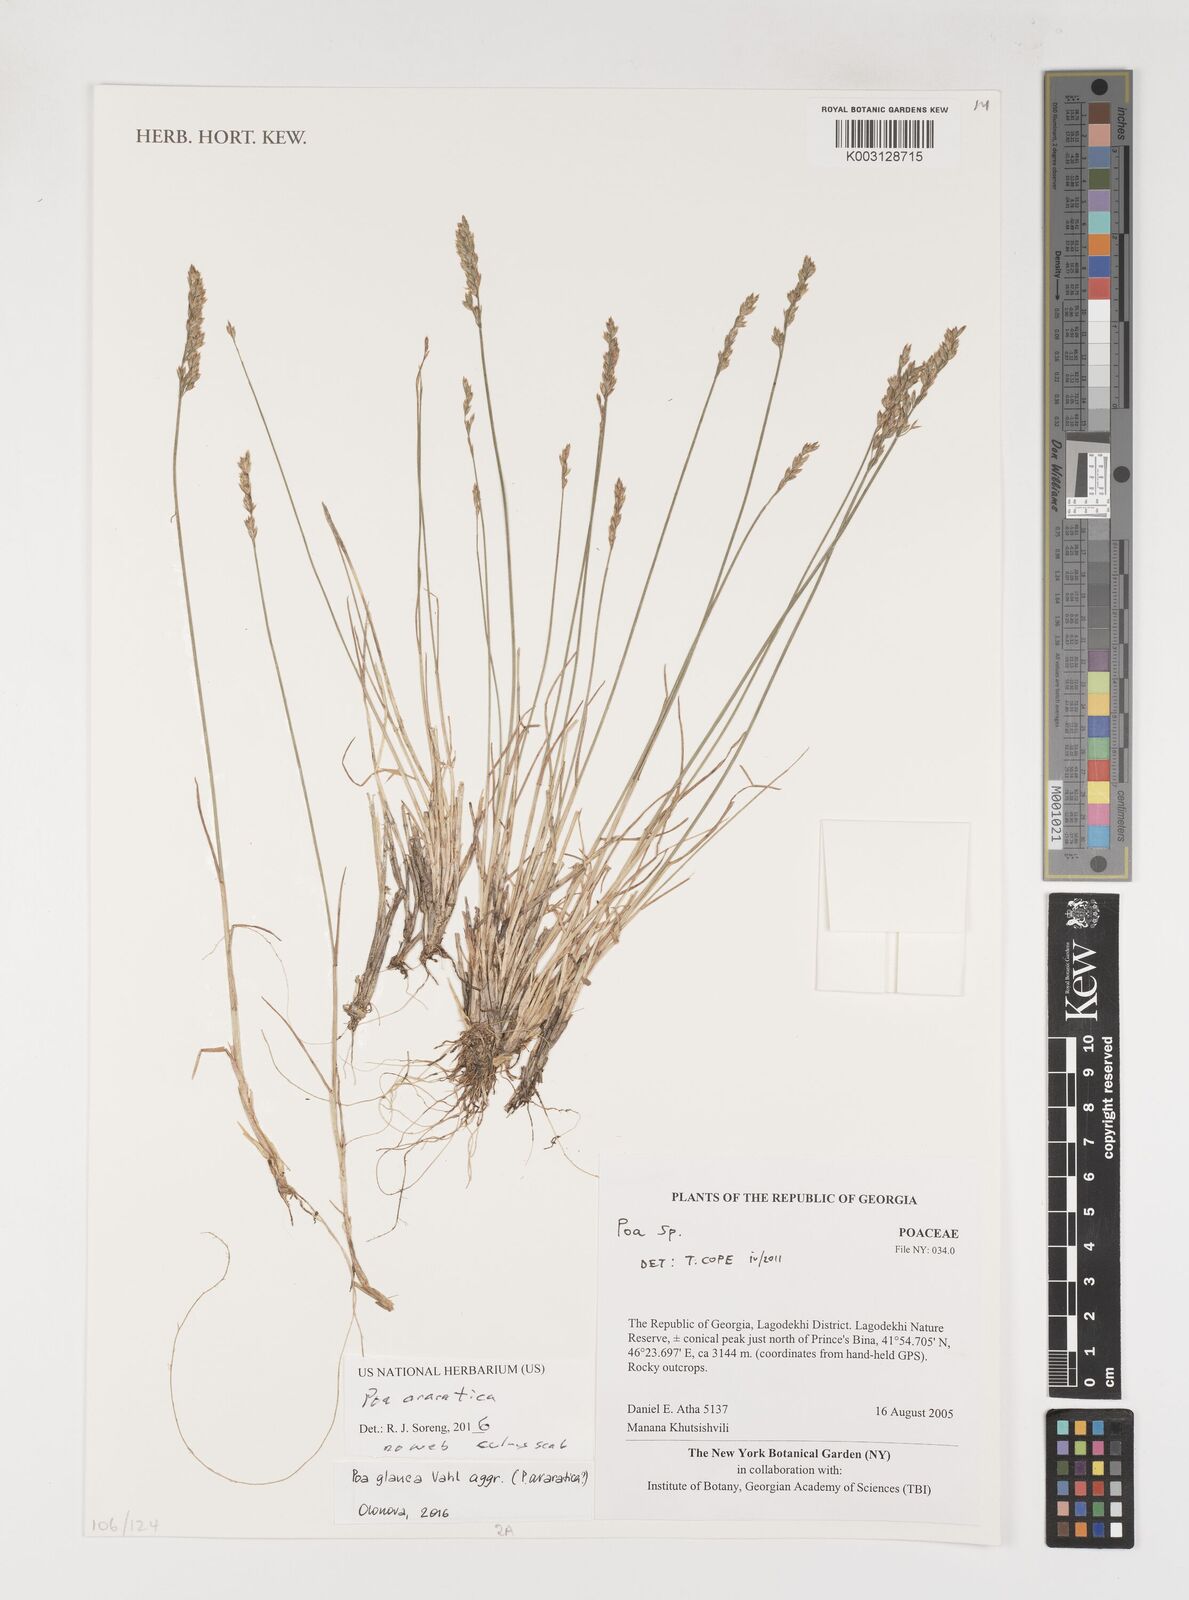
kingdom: Plantae
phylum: Tracheophyta
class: Liliopsida
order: Poales
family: Poaceae
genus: Poa
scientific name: Poa araratica
